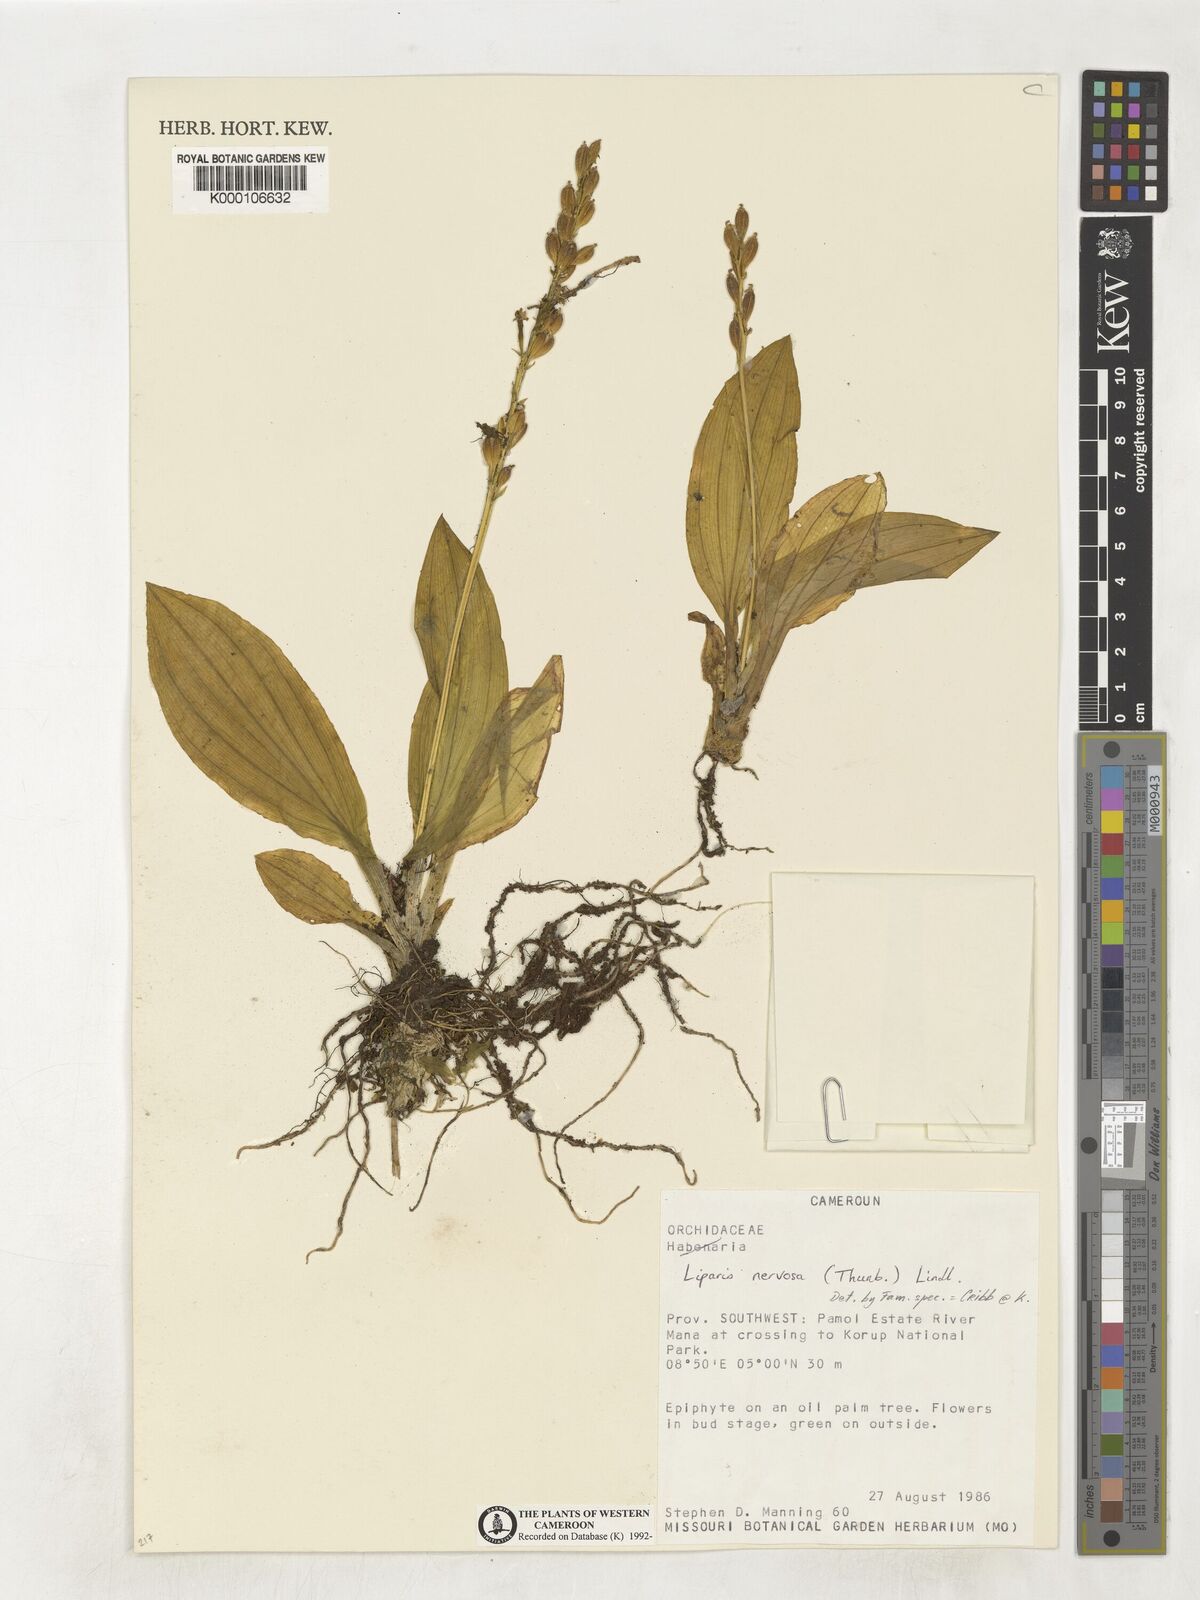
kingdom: Plantae
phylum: Tracheophyta
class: Liliopsida
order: Asparagales
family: Orchidaceae
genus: Liparis
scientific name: Liparis nervosa
